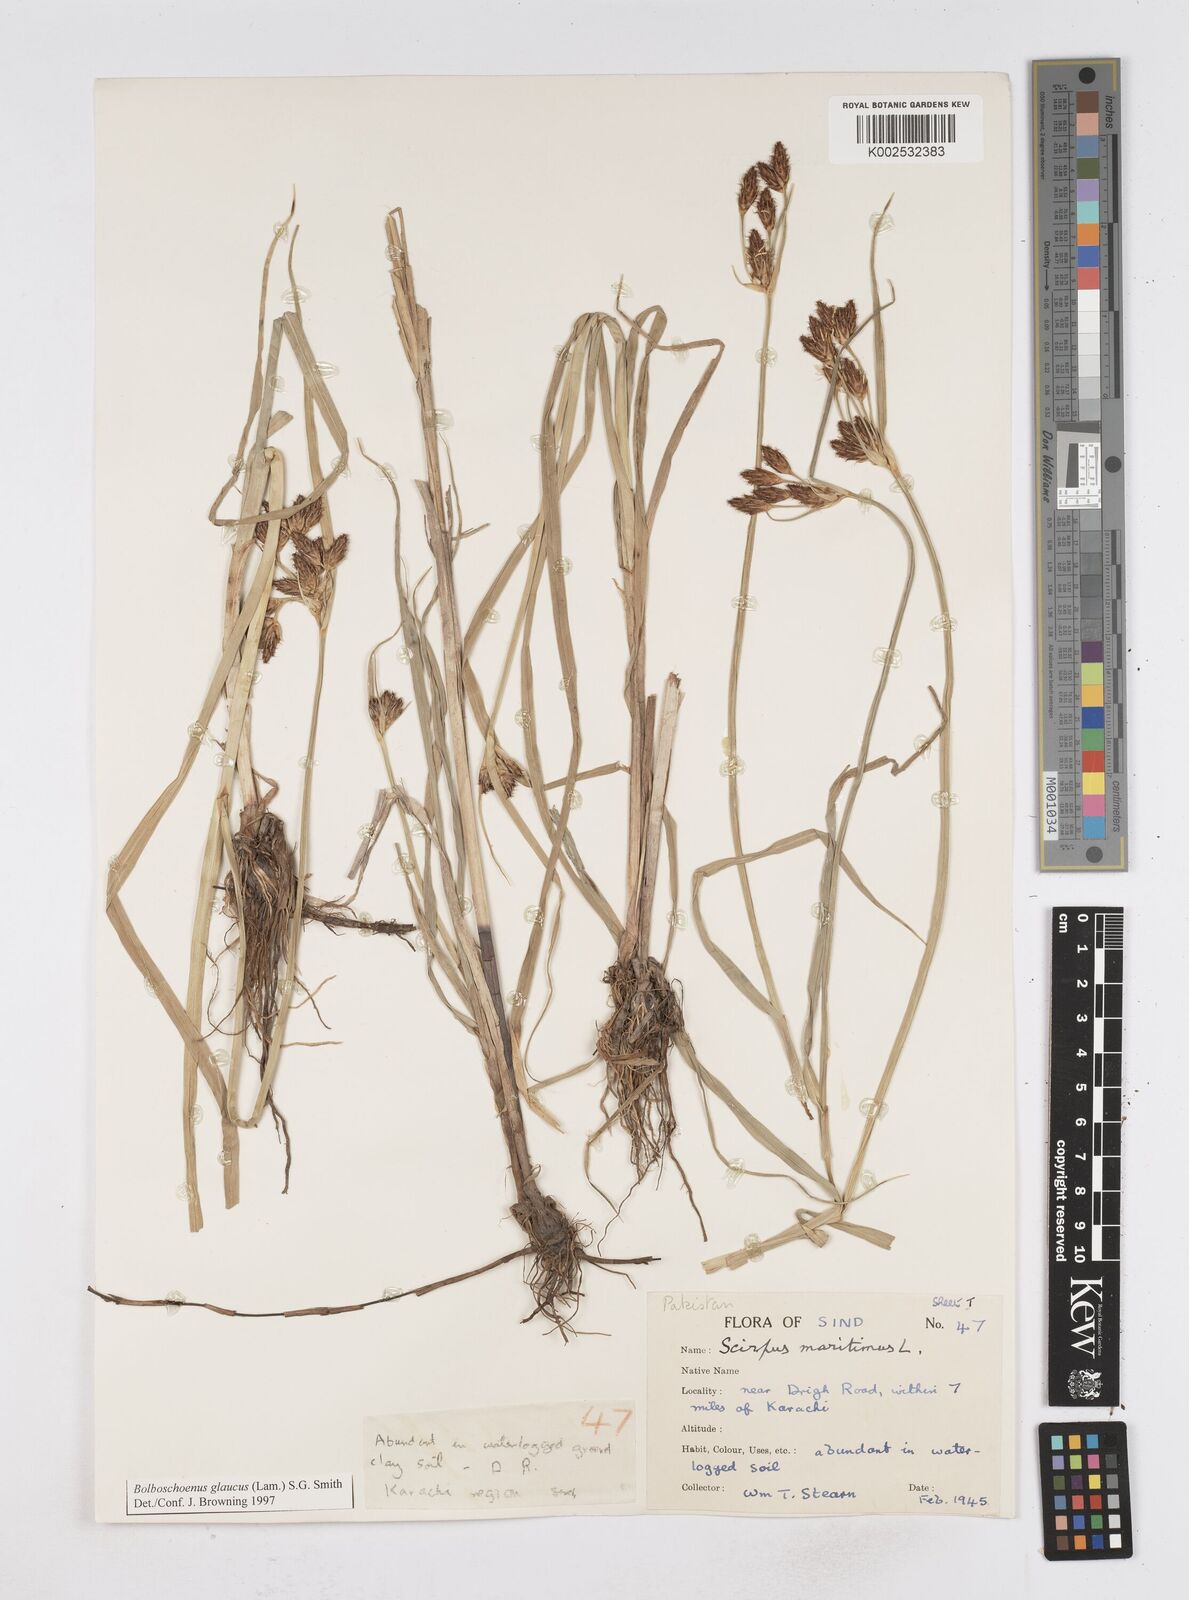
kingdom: Plantae
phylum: Tracheophyta
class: Liliopsida
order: Poales
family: Cyperaceae
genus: Bolboschoenus
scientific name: Bolboschoenus maritimus
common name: Sea club-rush
